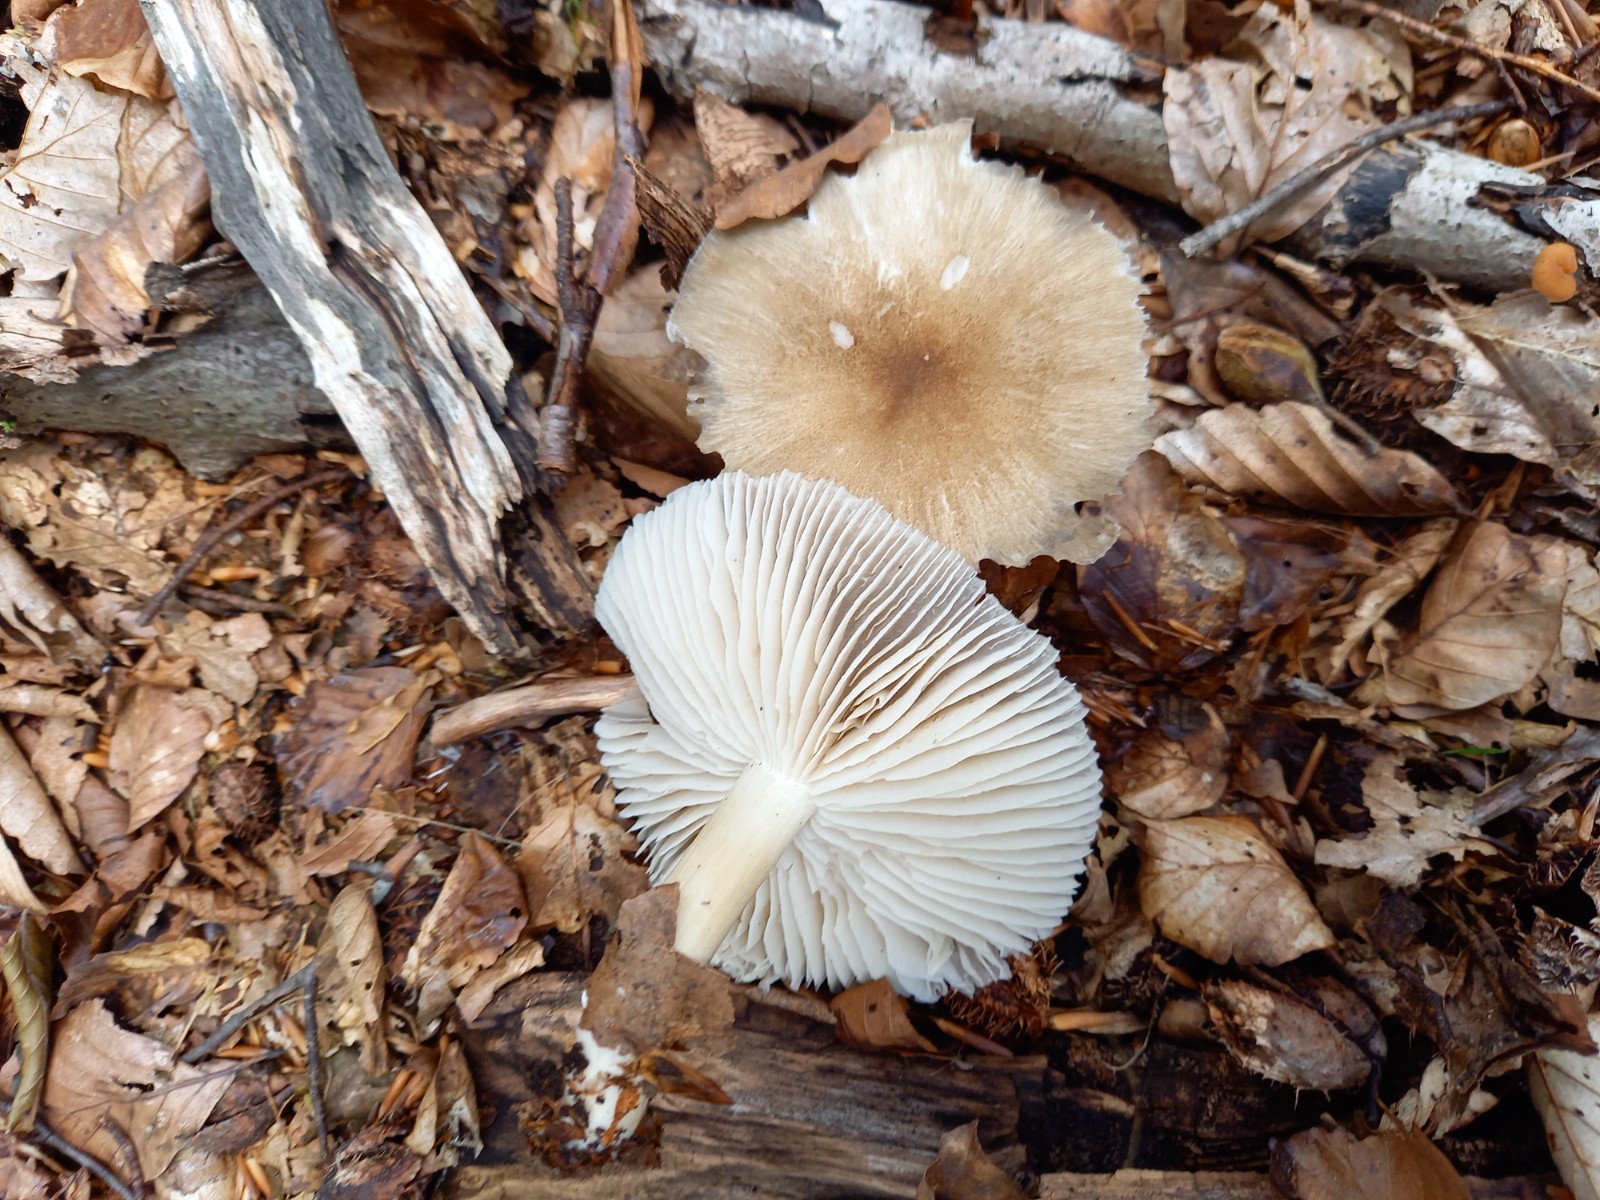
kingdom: Fungi
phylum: Basidiomycota
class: Agaricomycetes
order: Agaricales
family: Tricholomataceae
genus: Megacollybia
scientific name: Megacollybia platyphylla
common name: bredbladet væbnerhat
